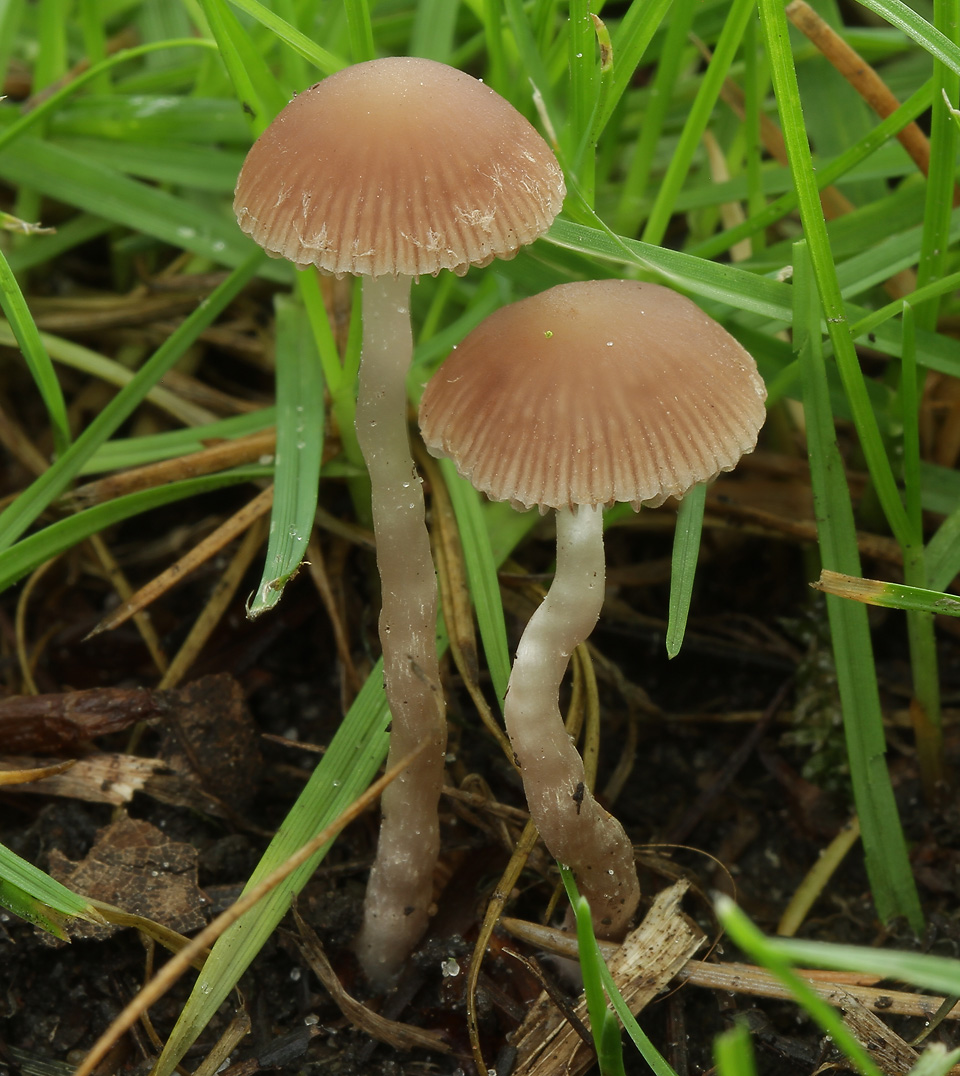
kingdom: Fungi
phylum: Basidiomycota
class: Agaricomycetes
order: Agaricales
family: Psathyrellaceae
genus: Psathyrella
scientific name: Psathyrella lutensis
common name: hjulspor-mørkhat
